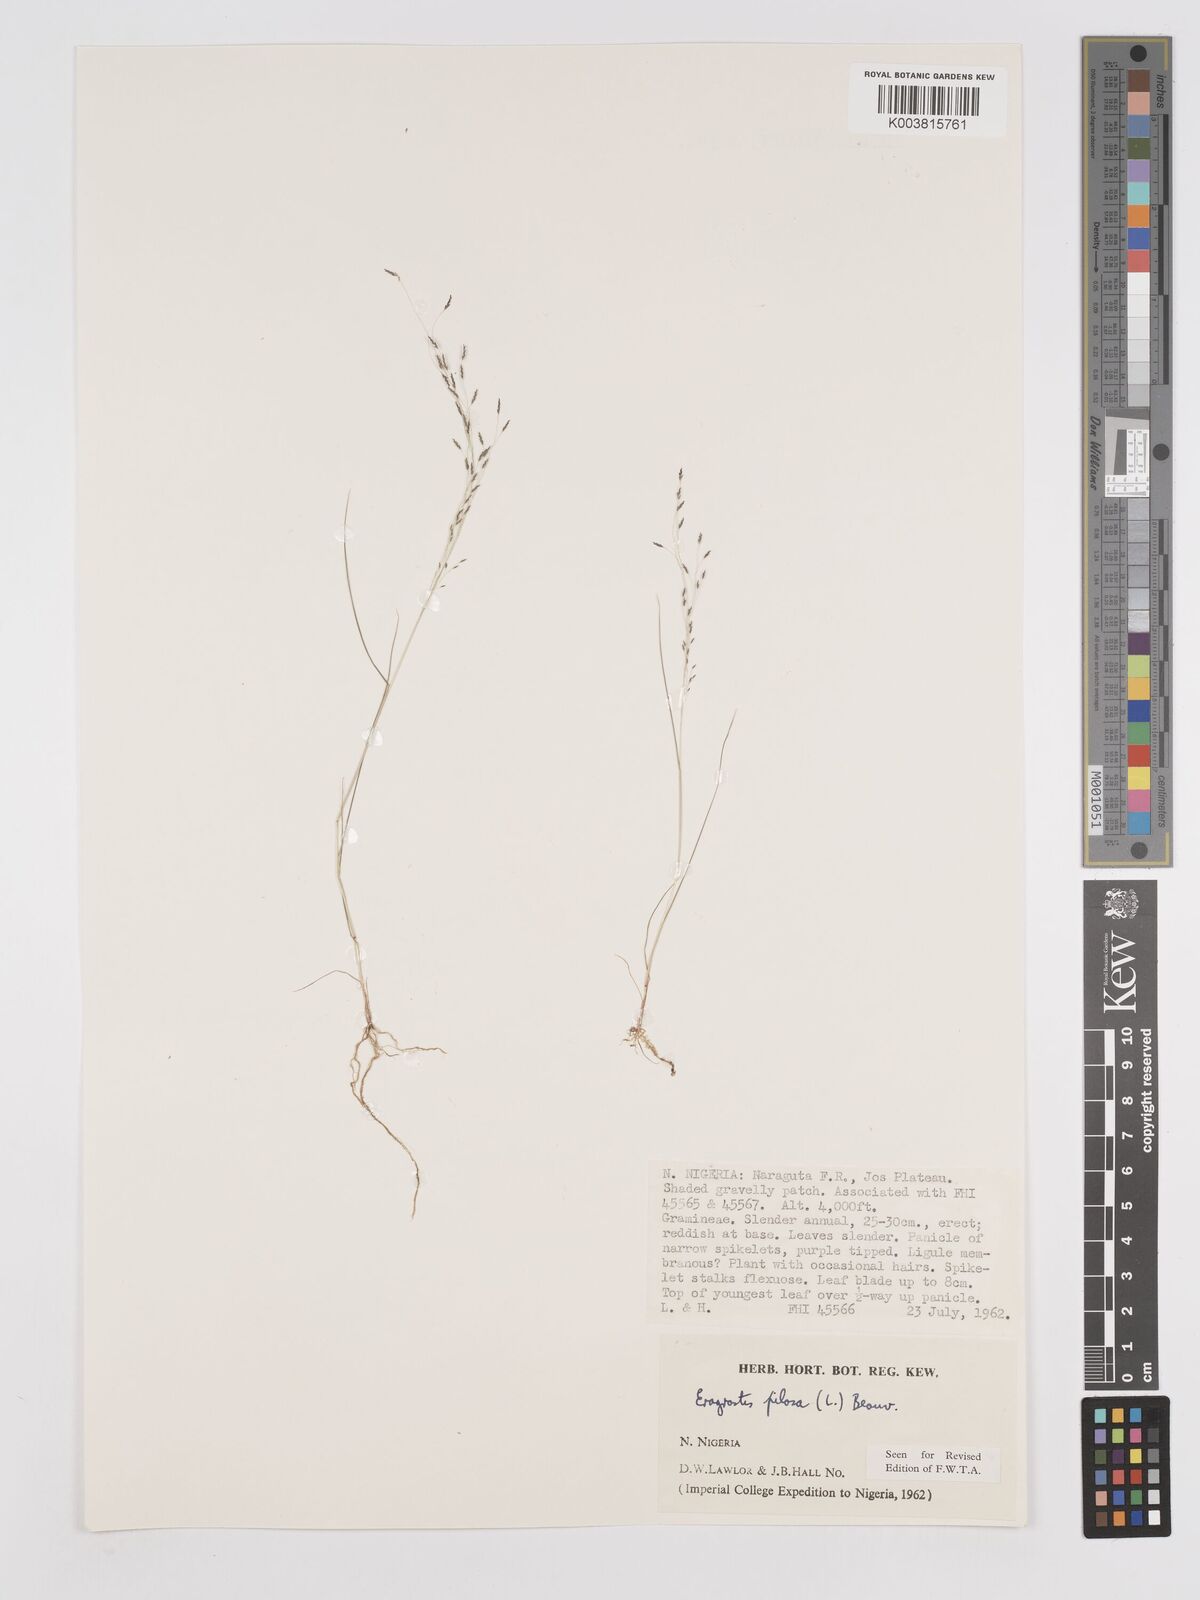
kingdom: Plantae
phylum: Tracheophyta
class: Liliopsida
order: Poales
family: Poaceae
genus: Eragrostis
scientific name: Eragrostis pilosa
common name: Indian lovegrass
